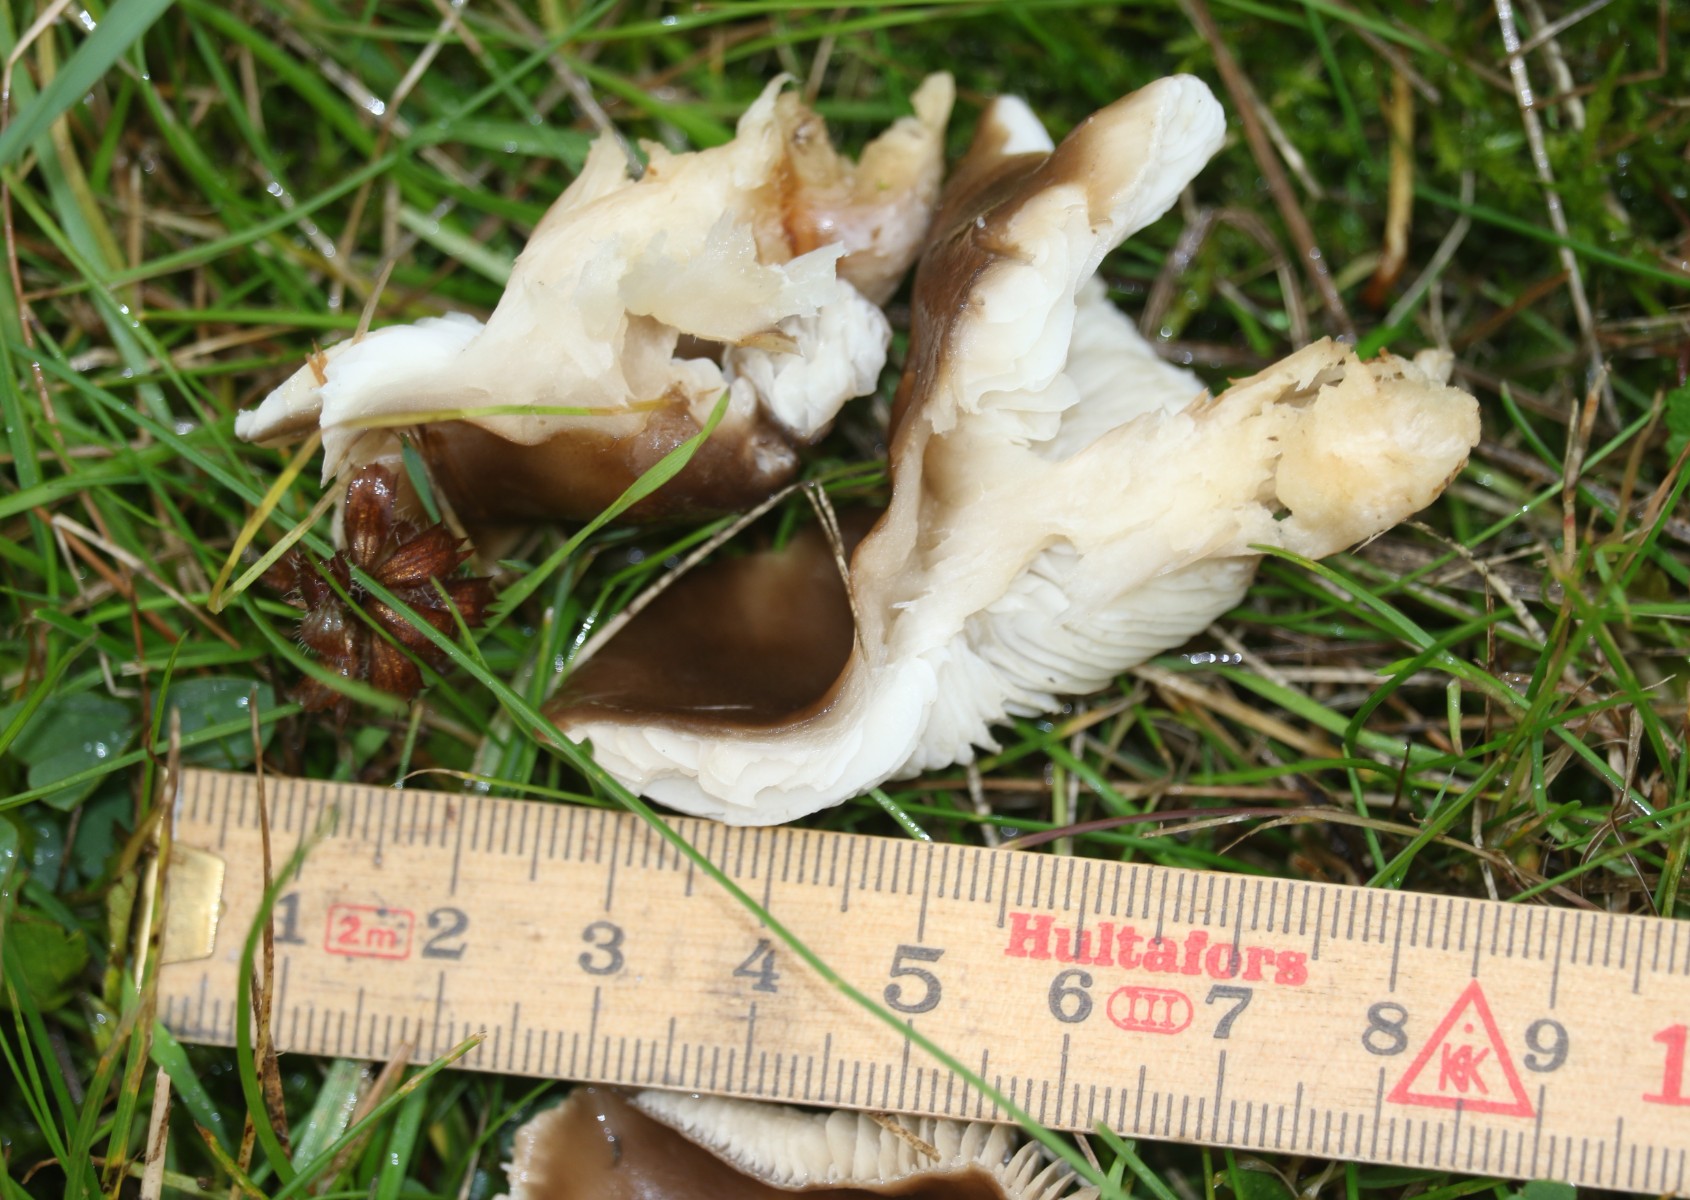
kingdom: Fungi
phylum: Basidiomycota
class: Agaricomycetes
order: Agaricales
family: Lyophyllaceae
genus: Lyophyllum
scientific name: Lyophyllum decastes
